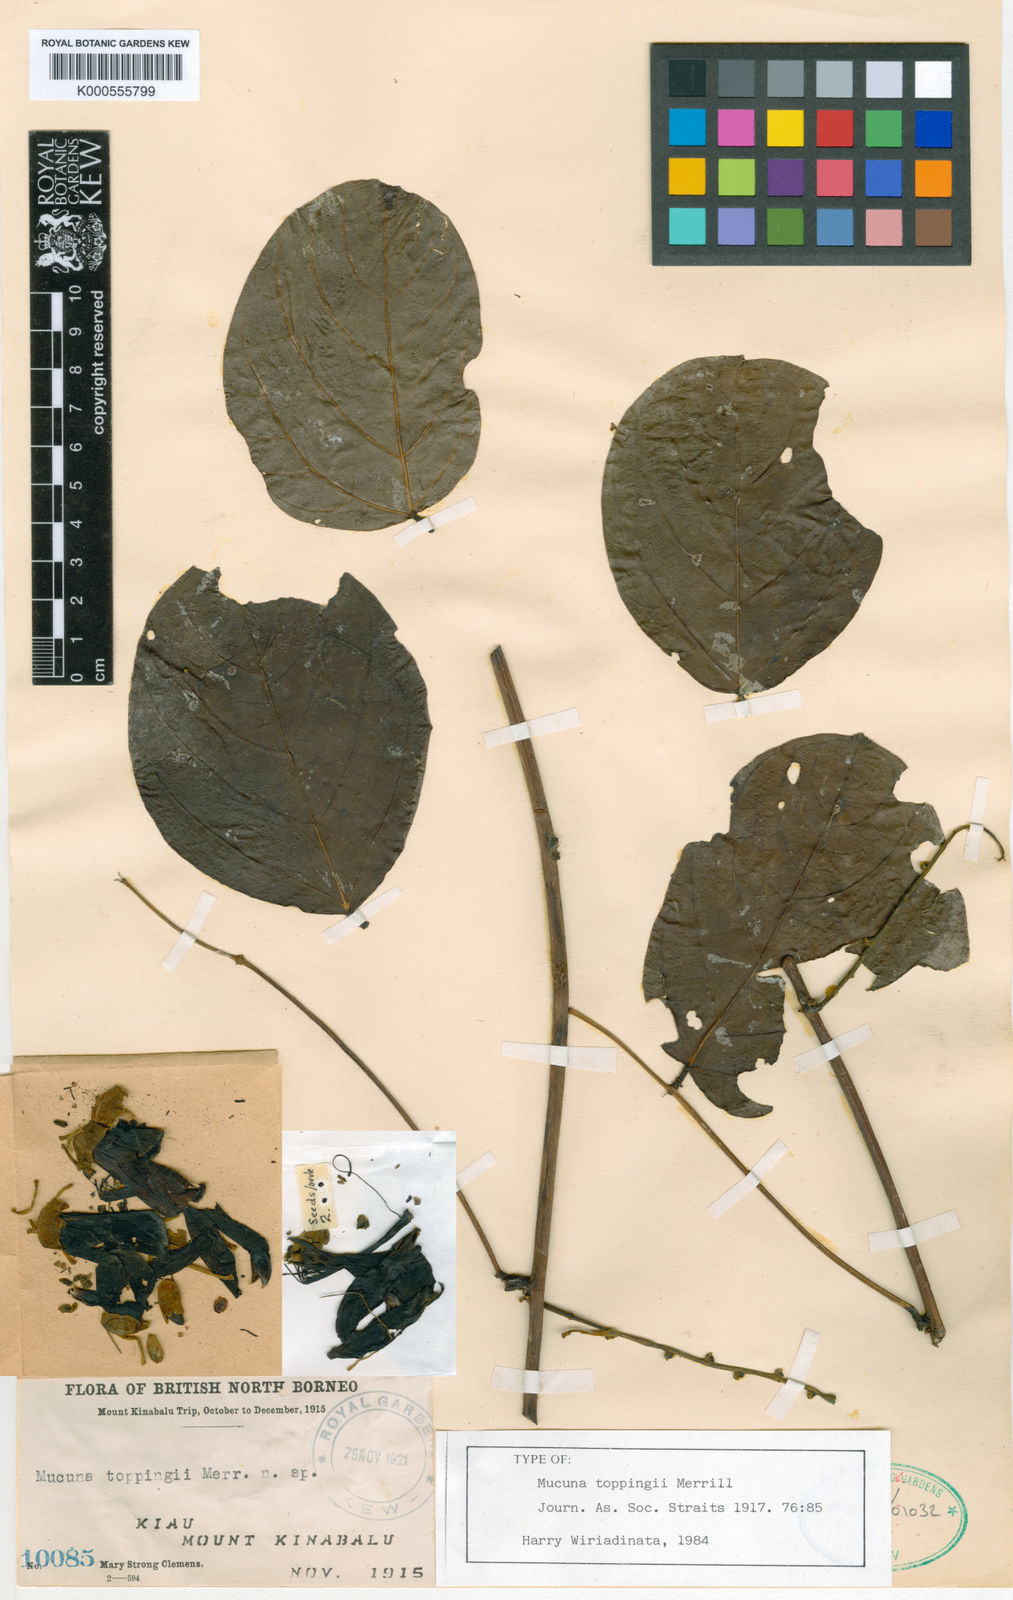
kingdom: Plantae
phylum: Tracheophyta
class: Magnoliopsida
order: Fabales
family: Fabaceae
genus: Mucuna
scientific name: Mucuna toppingii
